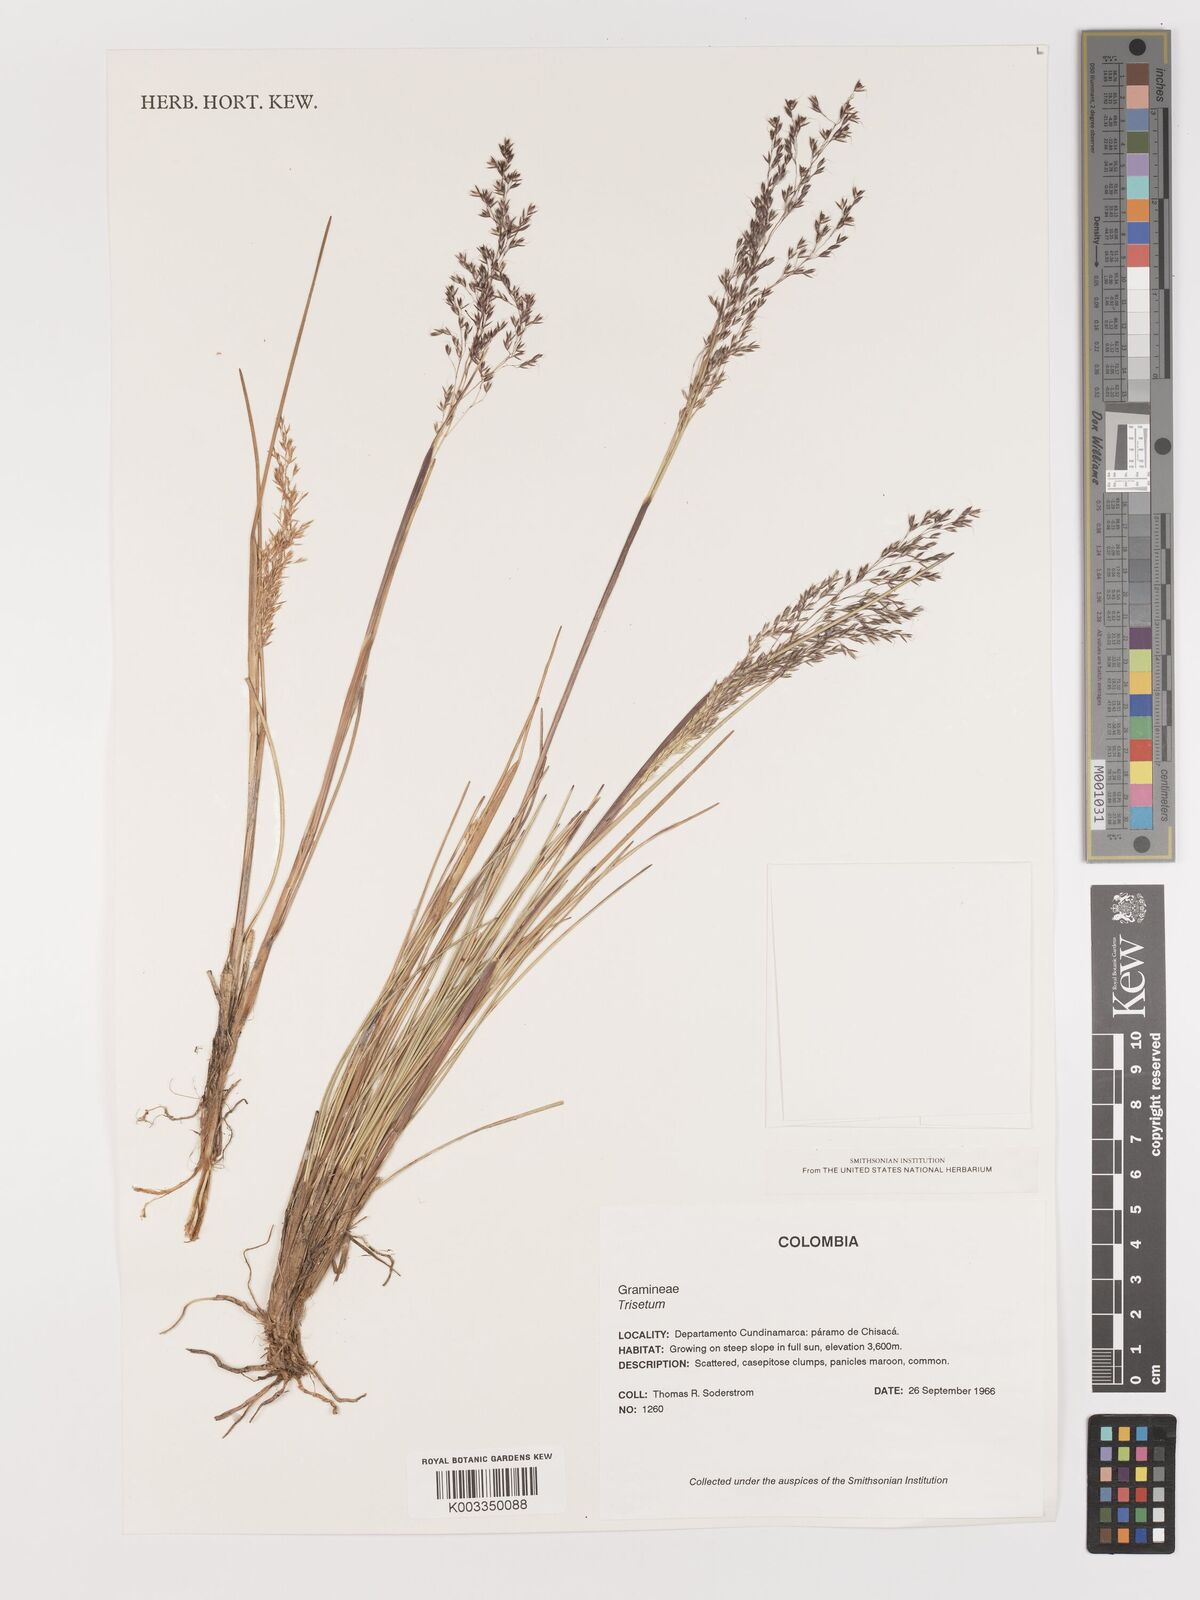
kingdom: Plantae
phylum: Tracheophyta
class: Liliopsida
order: Poales
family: Poaceae
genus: Agrostis
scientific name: Agrostis
